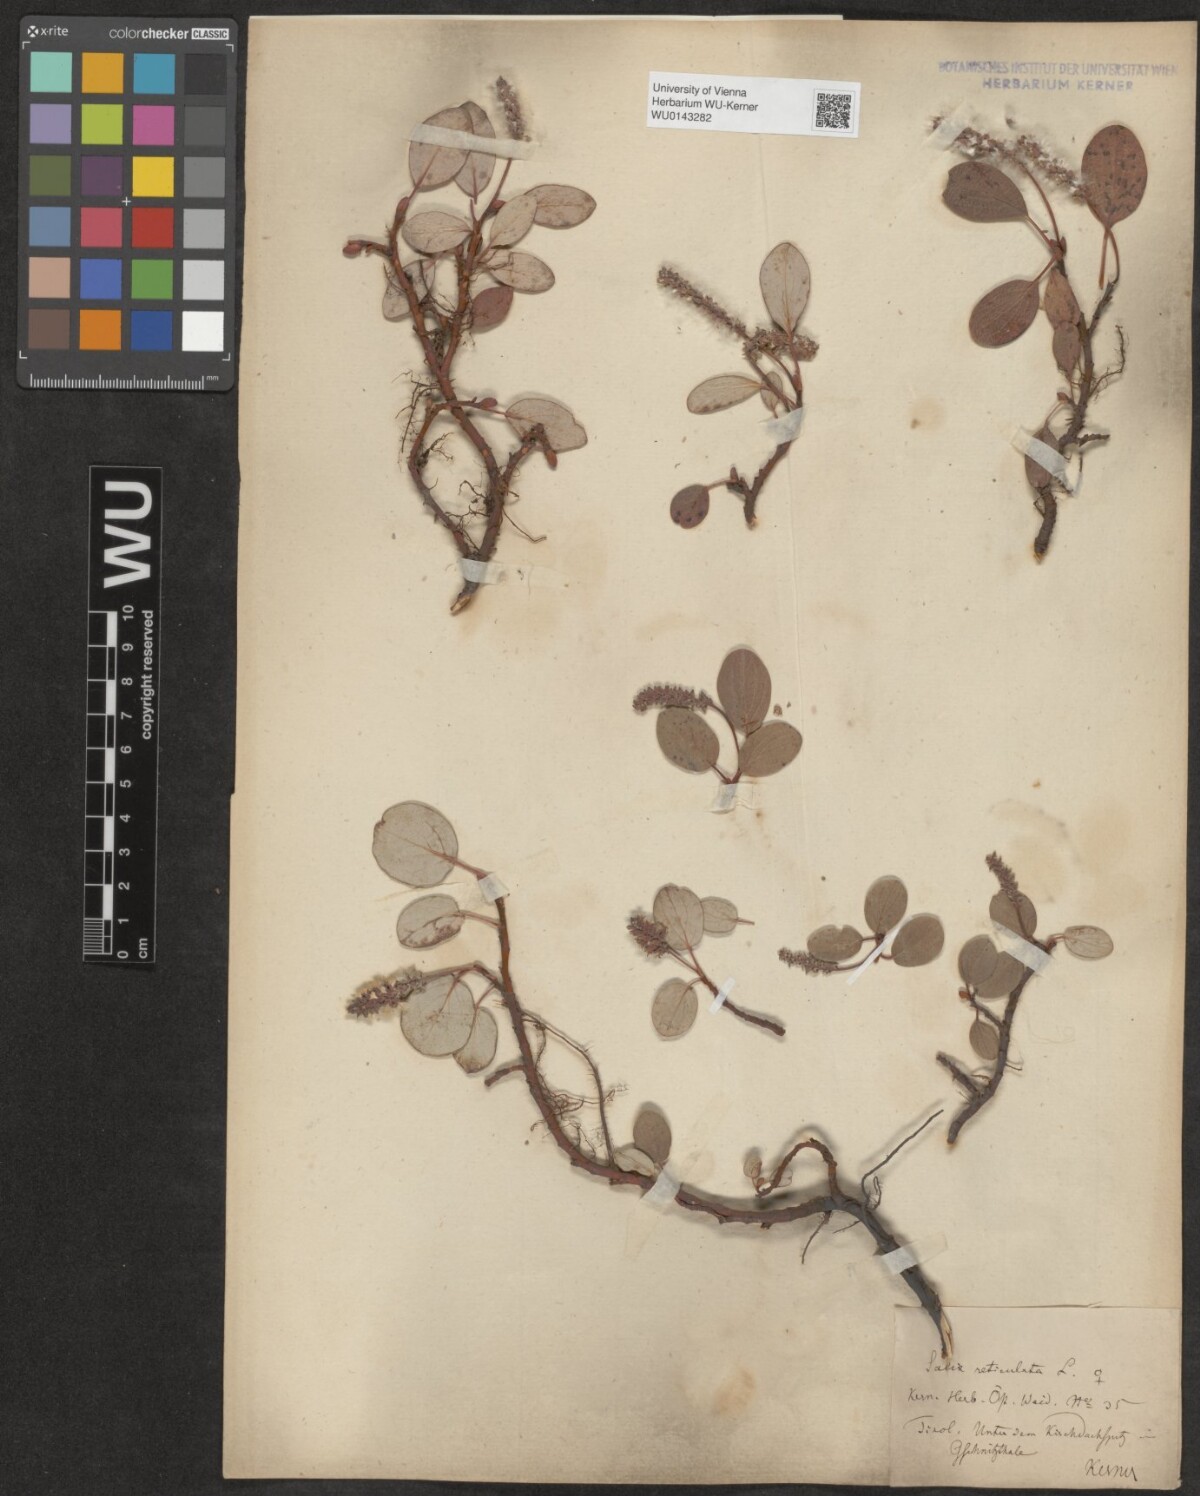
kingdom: Plantae
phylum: Tracheophyta
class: Magnoliopsida
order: Malpighiales
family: Salicaceae
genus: Salix
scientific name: Salix reticulata
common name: Net-leaved willow
